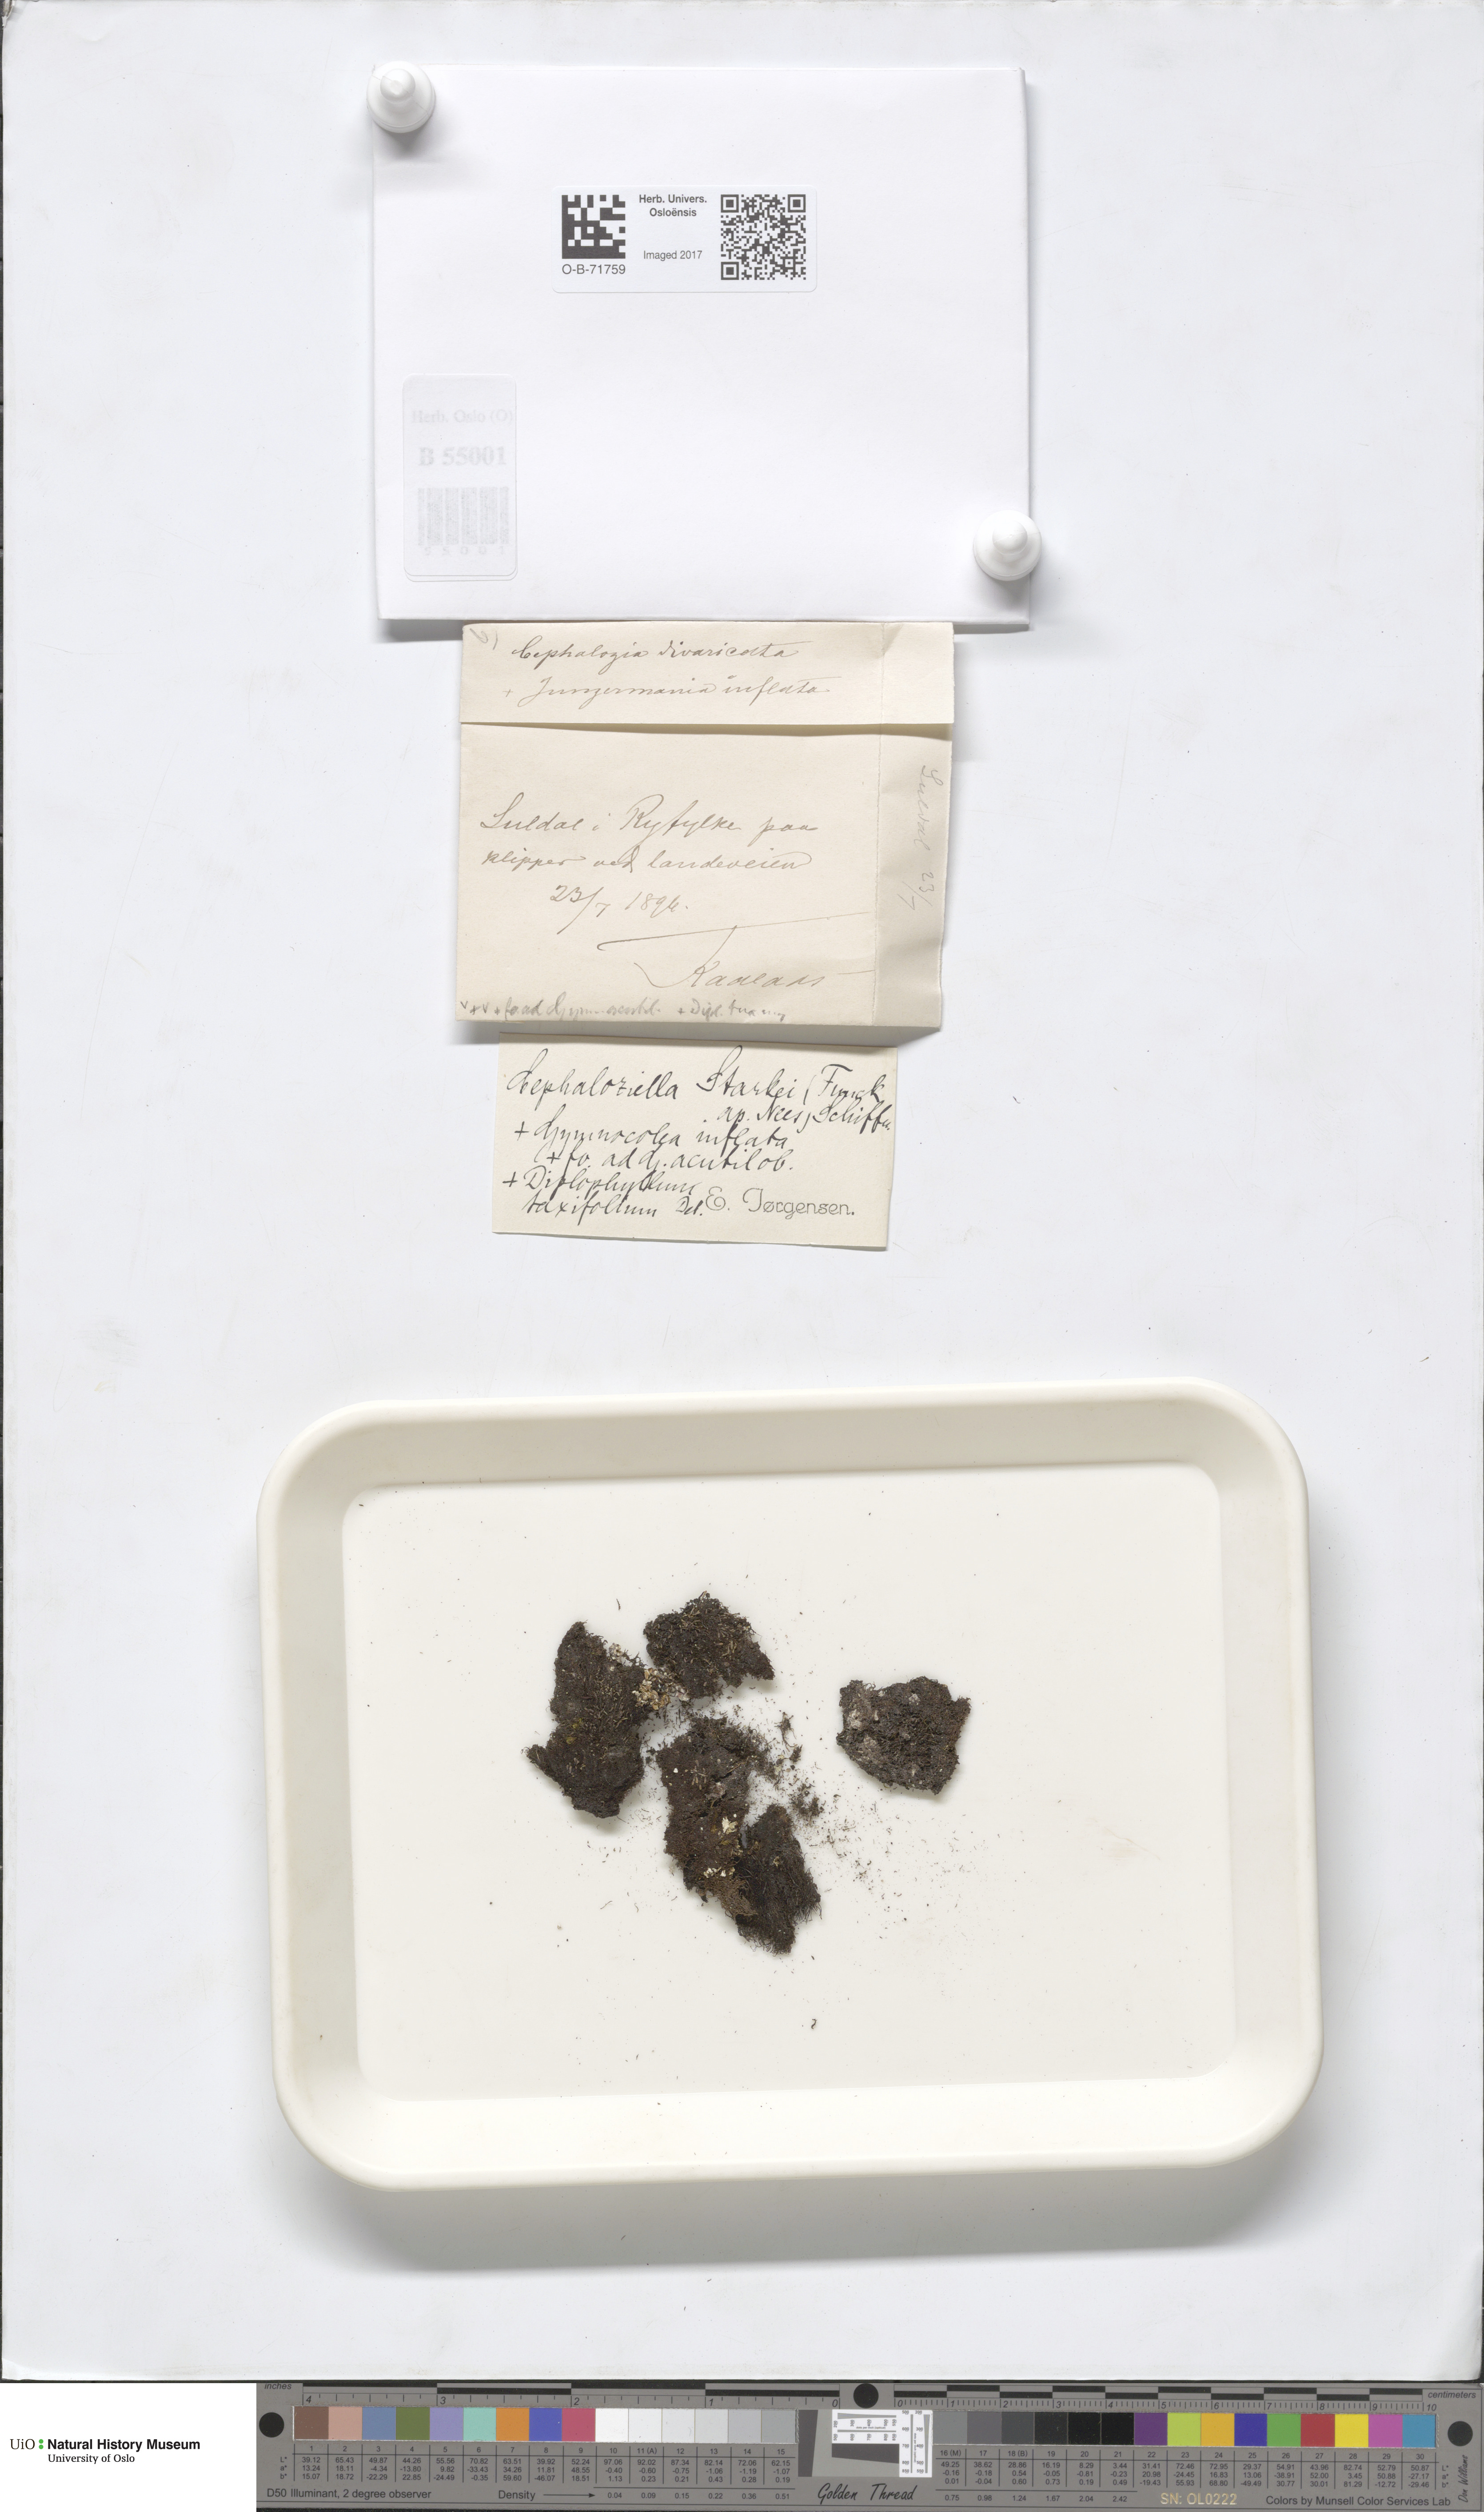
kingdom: Plantae
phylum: Marchantiophyta
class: Jungermanniopsida
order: Jungermanniales
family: Cephaloziellaceae
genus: Cephaloziella
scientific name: Cephaloziella divaricata
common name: Spreading threadwort
